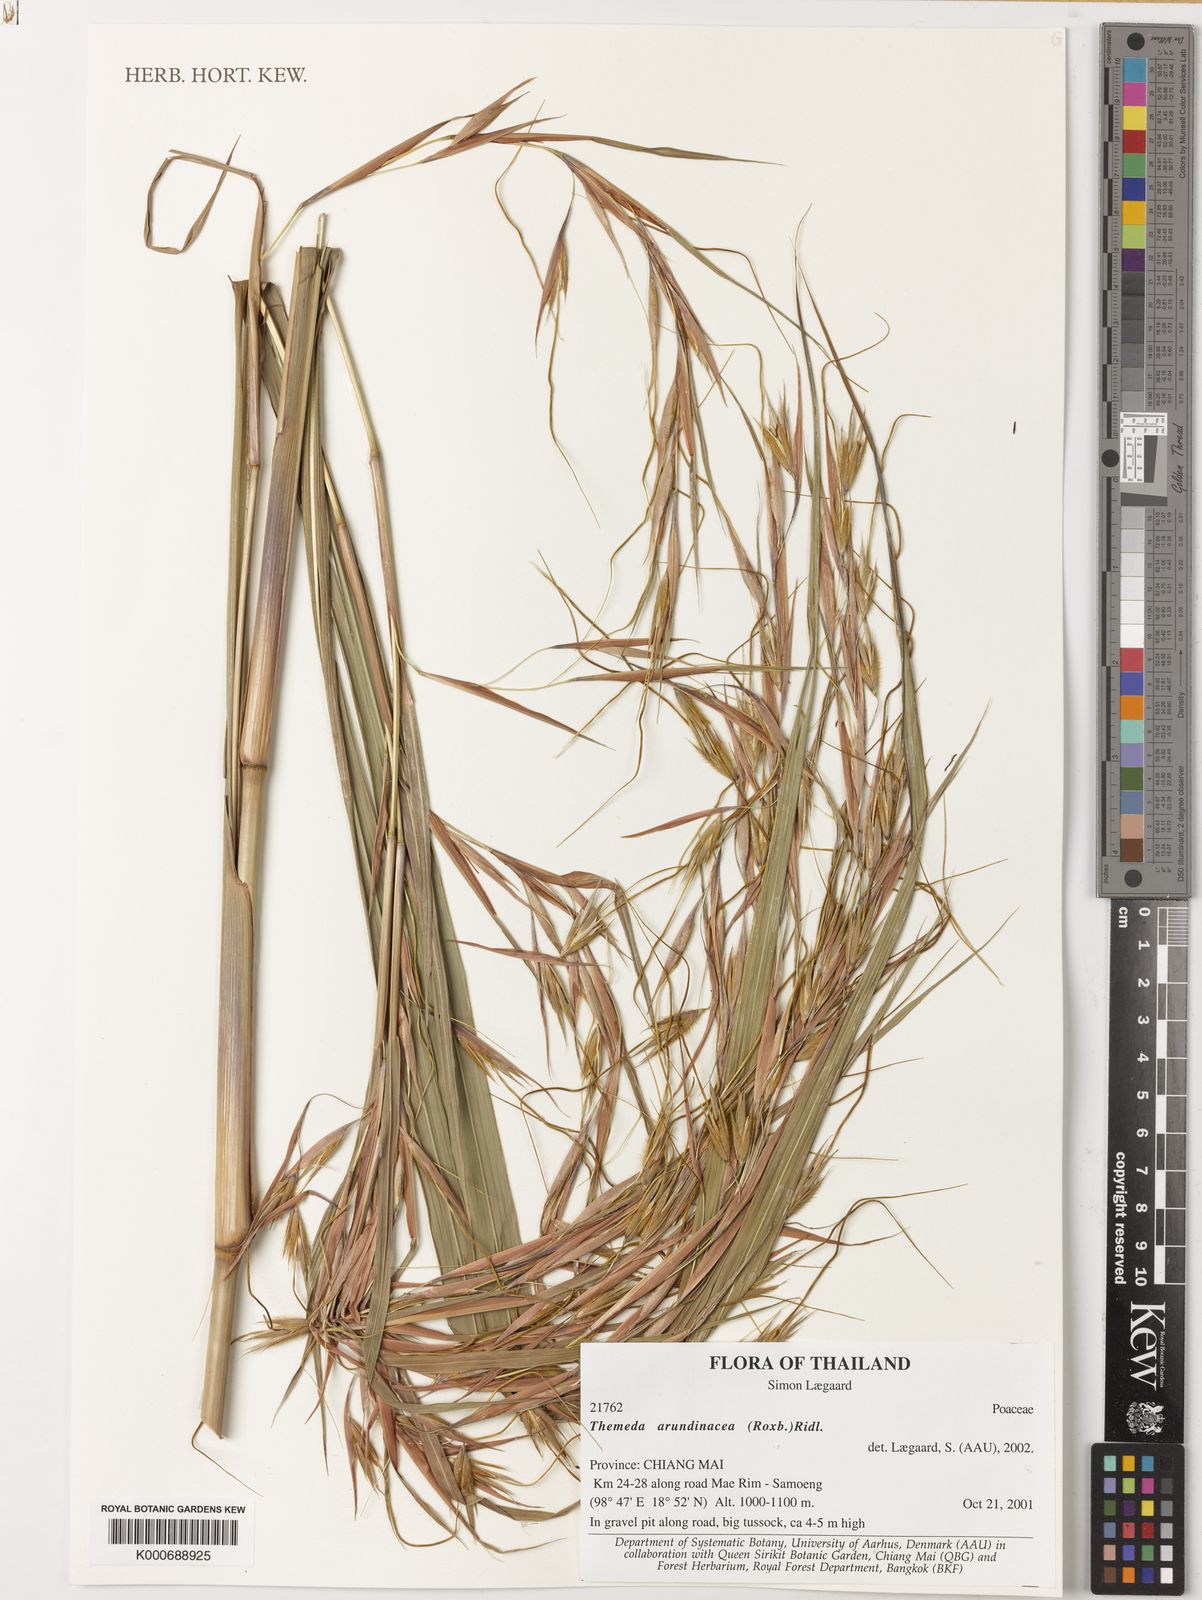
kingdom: Plantae
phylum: Tracheophyta
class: Liliopsida
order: Poales
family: Poaceae
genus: Themeda
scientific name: Themeda arundinacea
